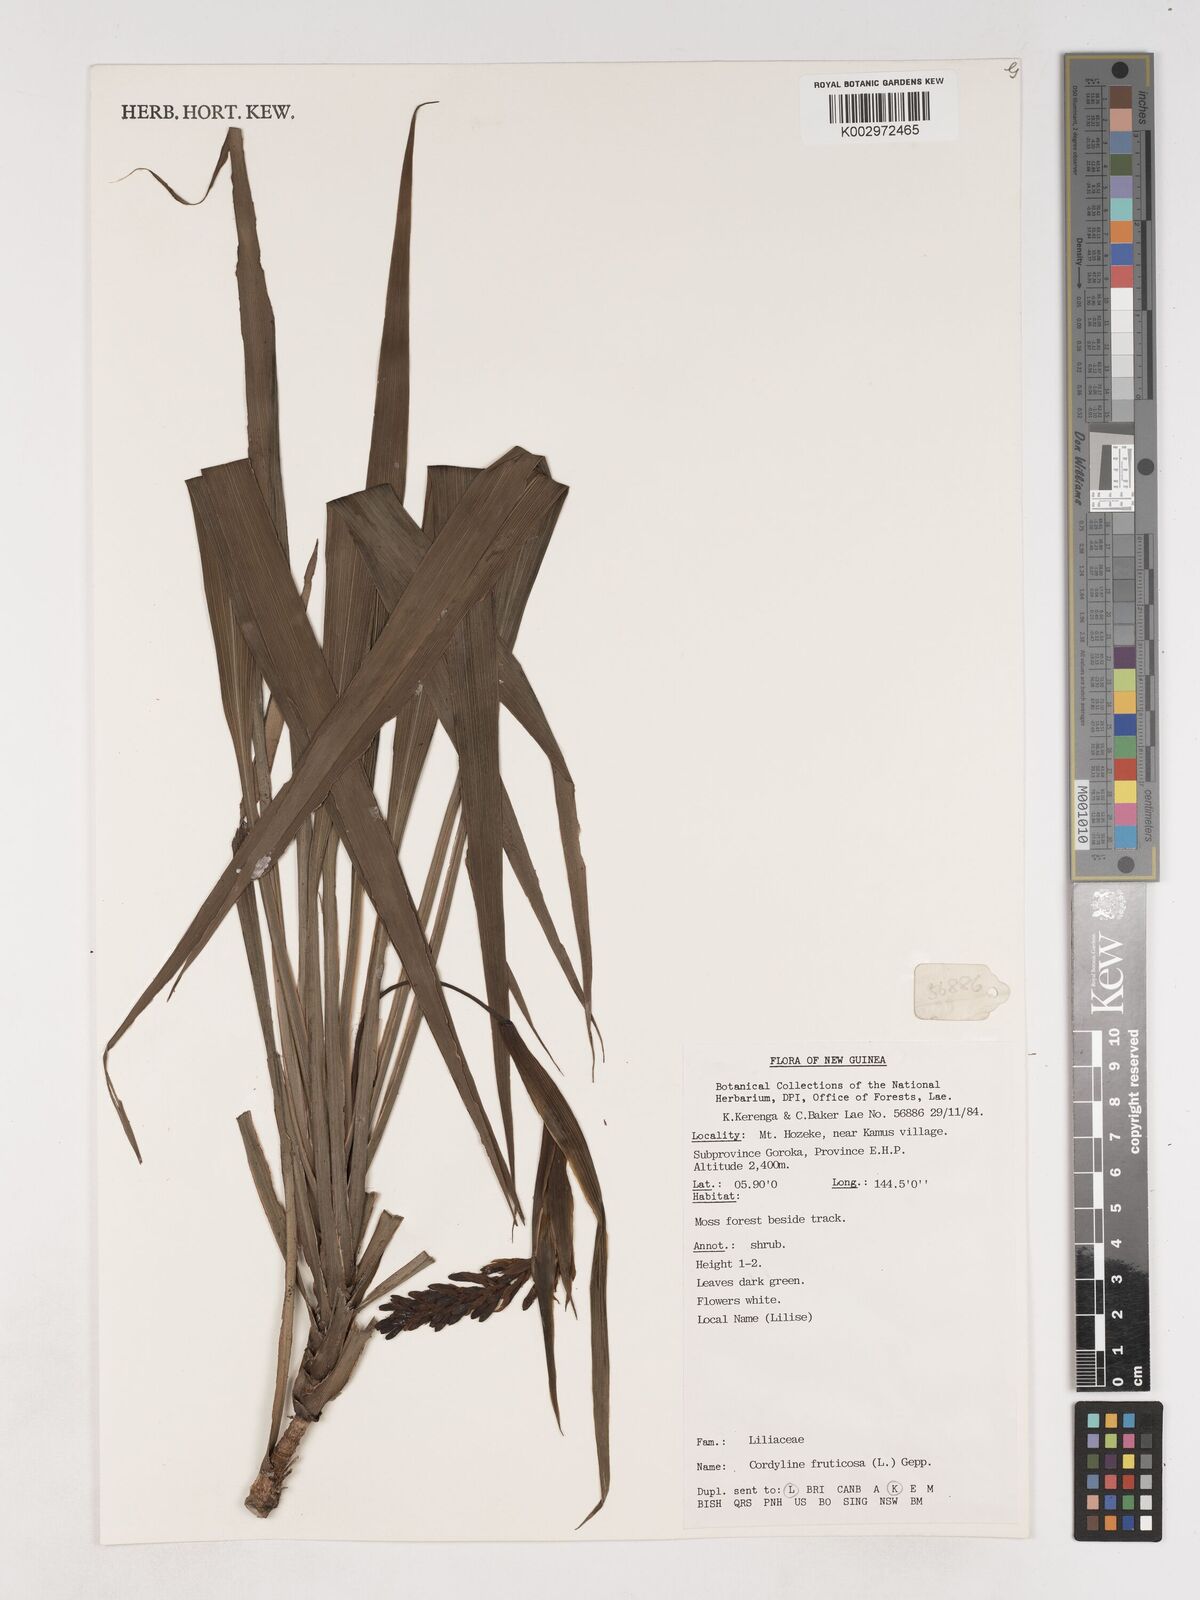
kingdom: Plantae
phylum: Tracheophyta
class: Liliopsida
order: Asparagales
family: Asparagaceae
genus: Cordyline
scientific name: Cordyline fruticosa
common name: Good-luck-plant
